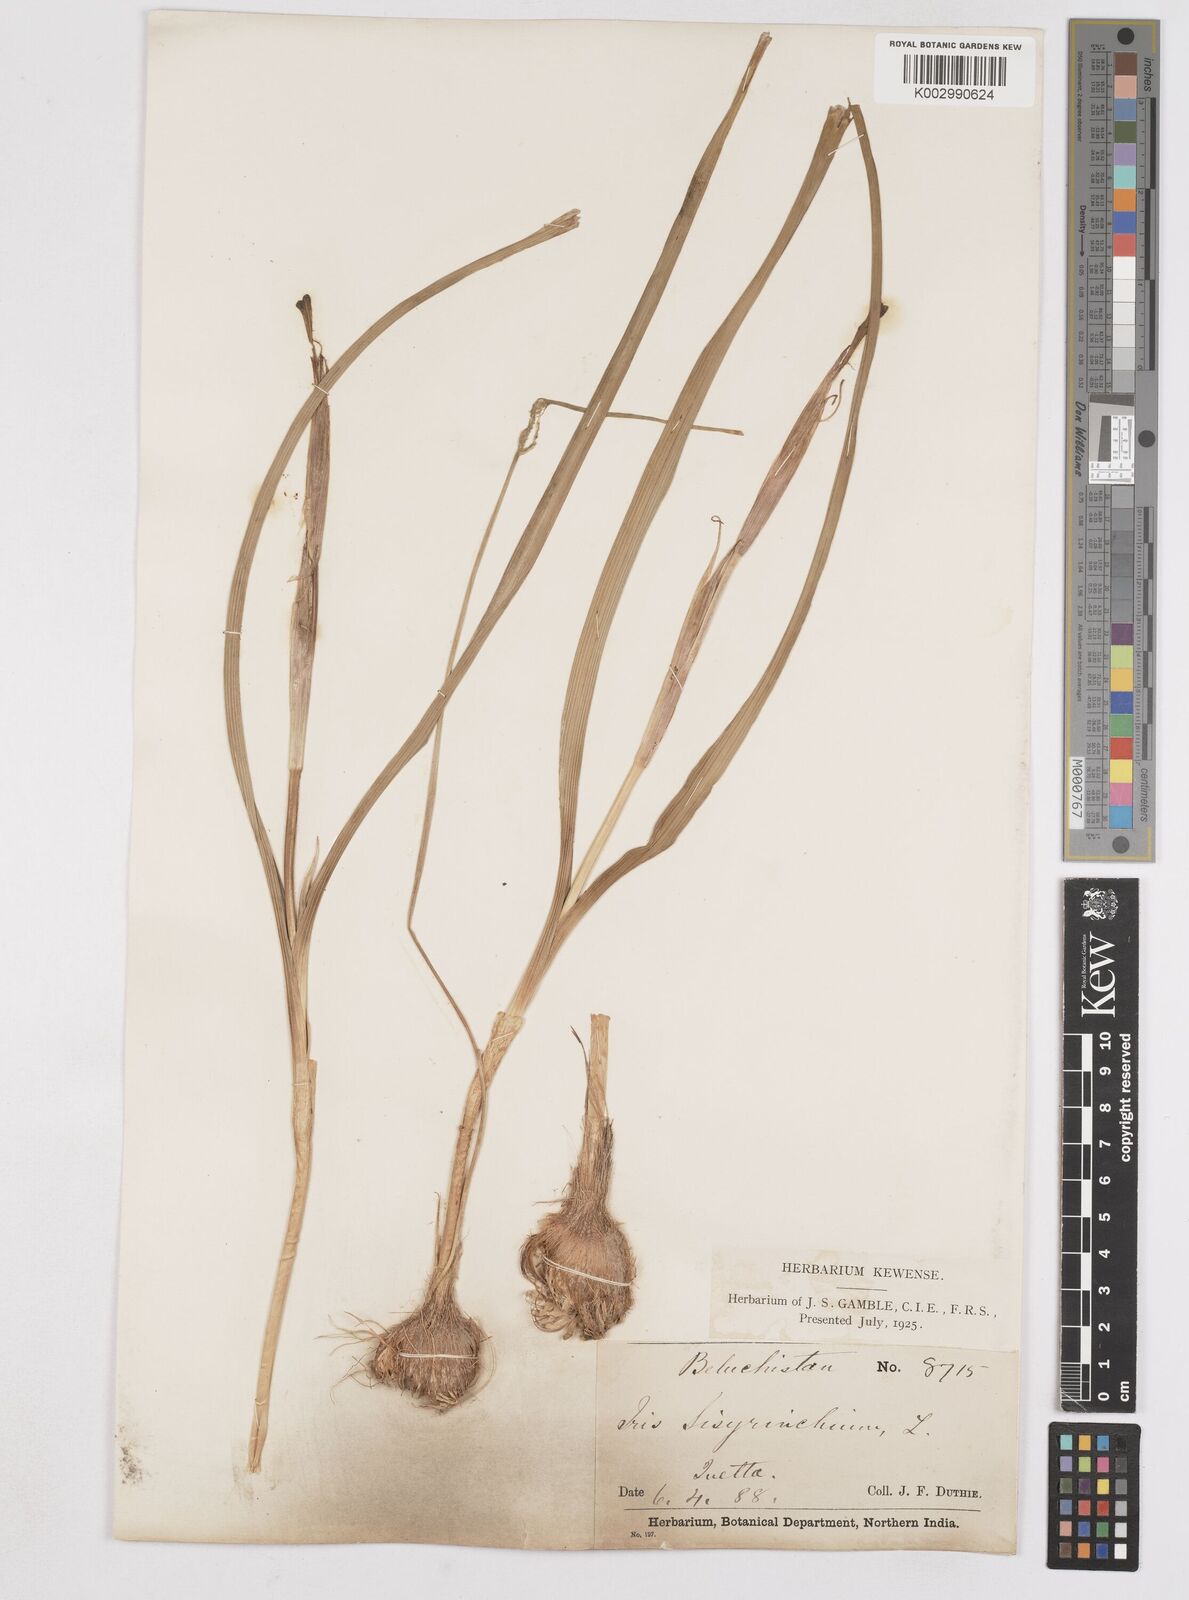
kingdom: Plantae
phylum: Tracheophyta
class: Liliopsida
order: Asparagales
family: Iridaceae
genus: Moraea
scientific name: Moraea sisyrinchium
